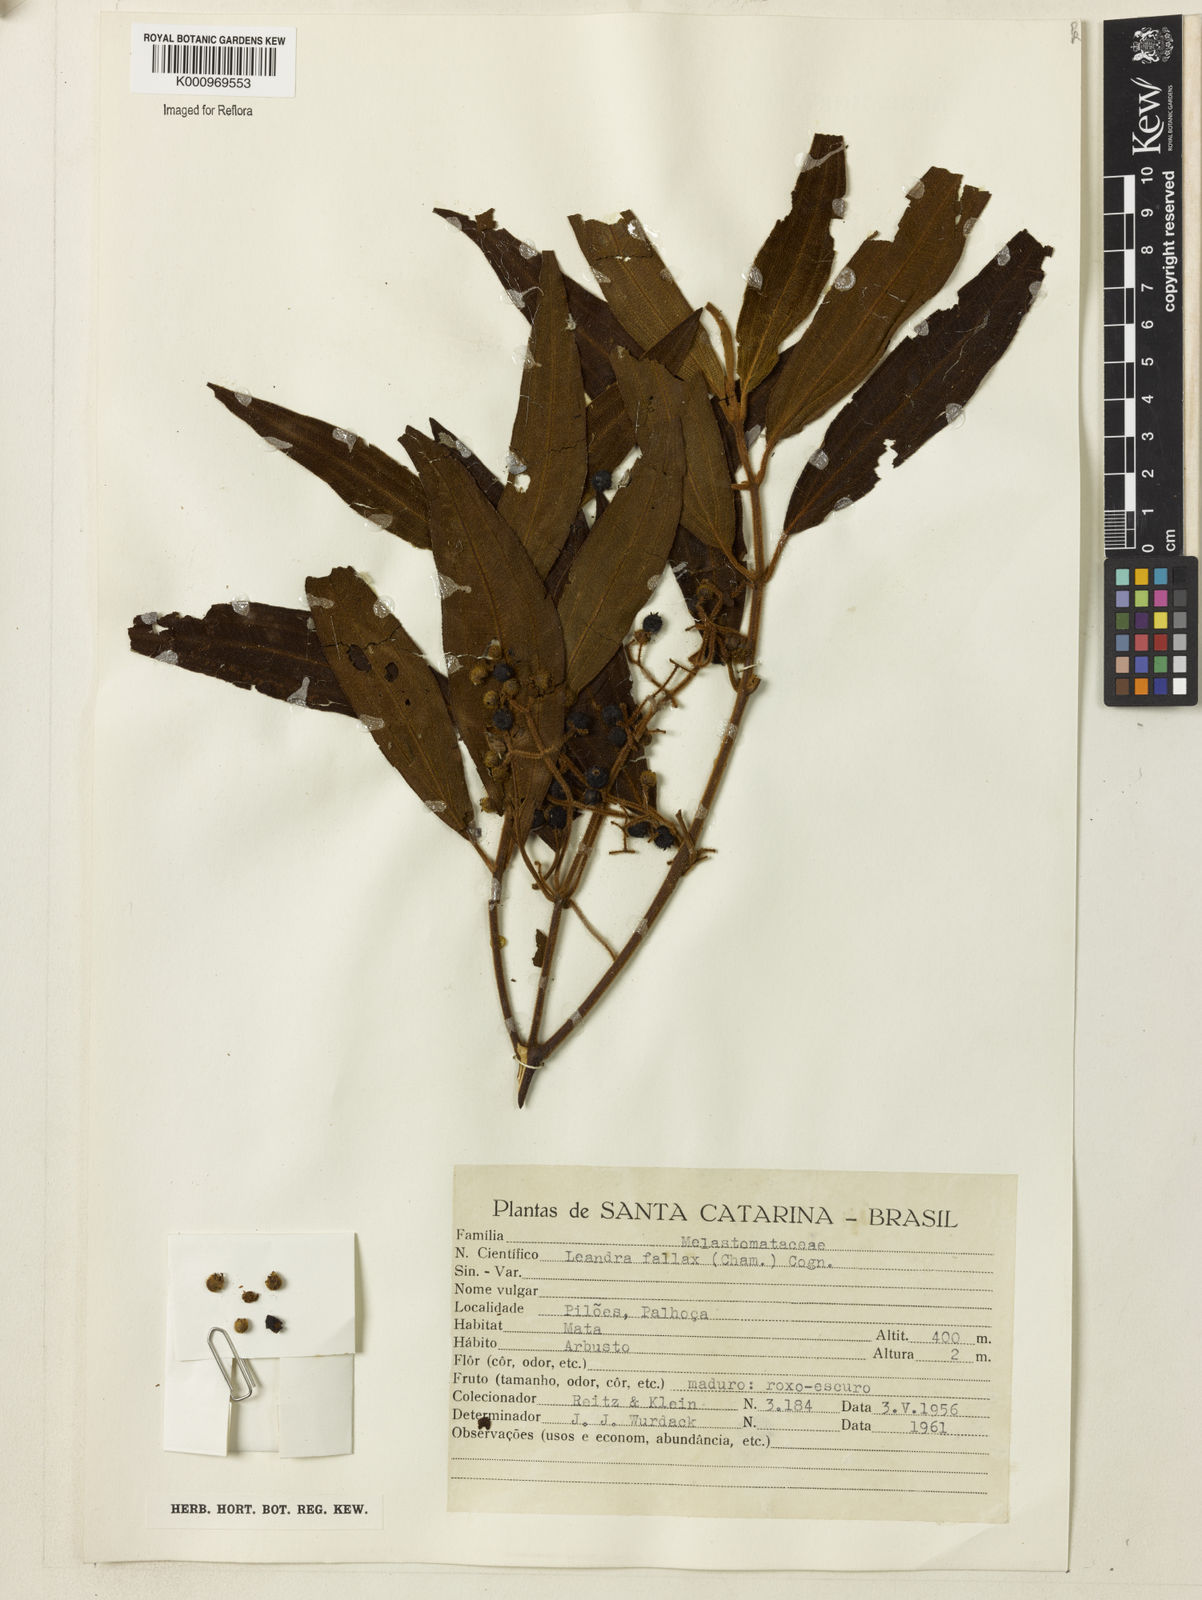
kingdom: Plantae
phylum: Tracheophyta
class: Magnoliopsida
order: Myrtales
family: Melastomataceae
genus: Miconia
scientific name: Miconia leafallax
